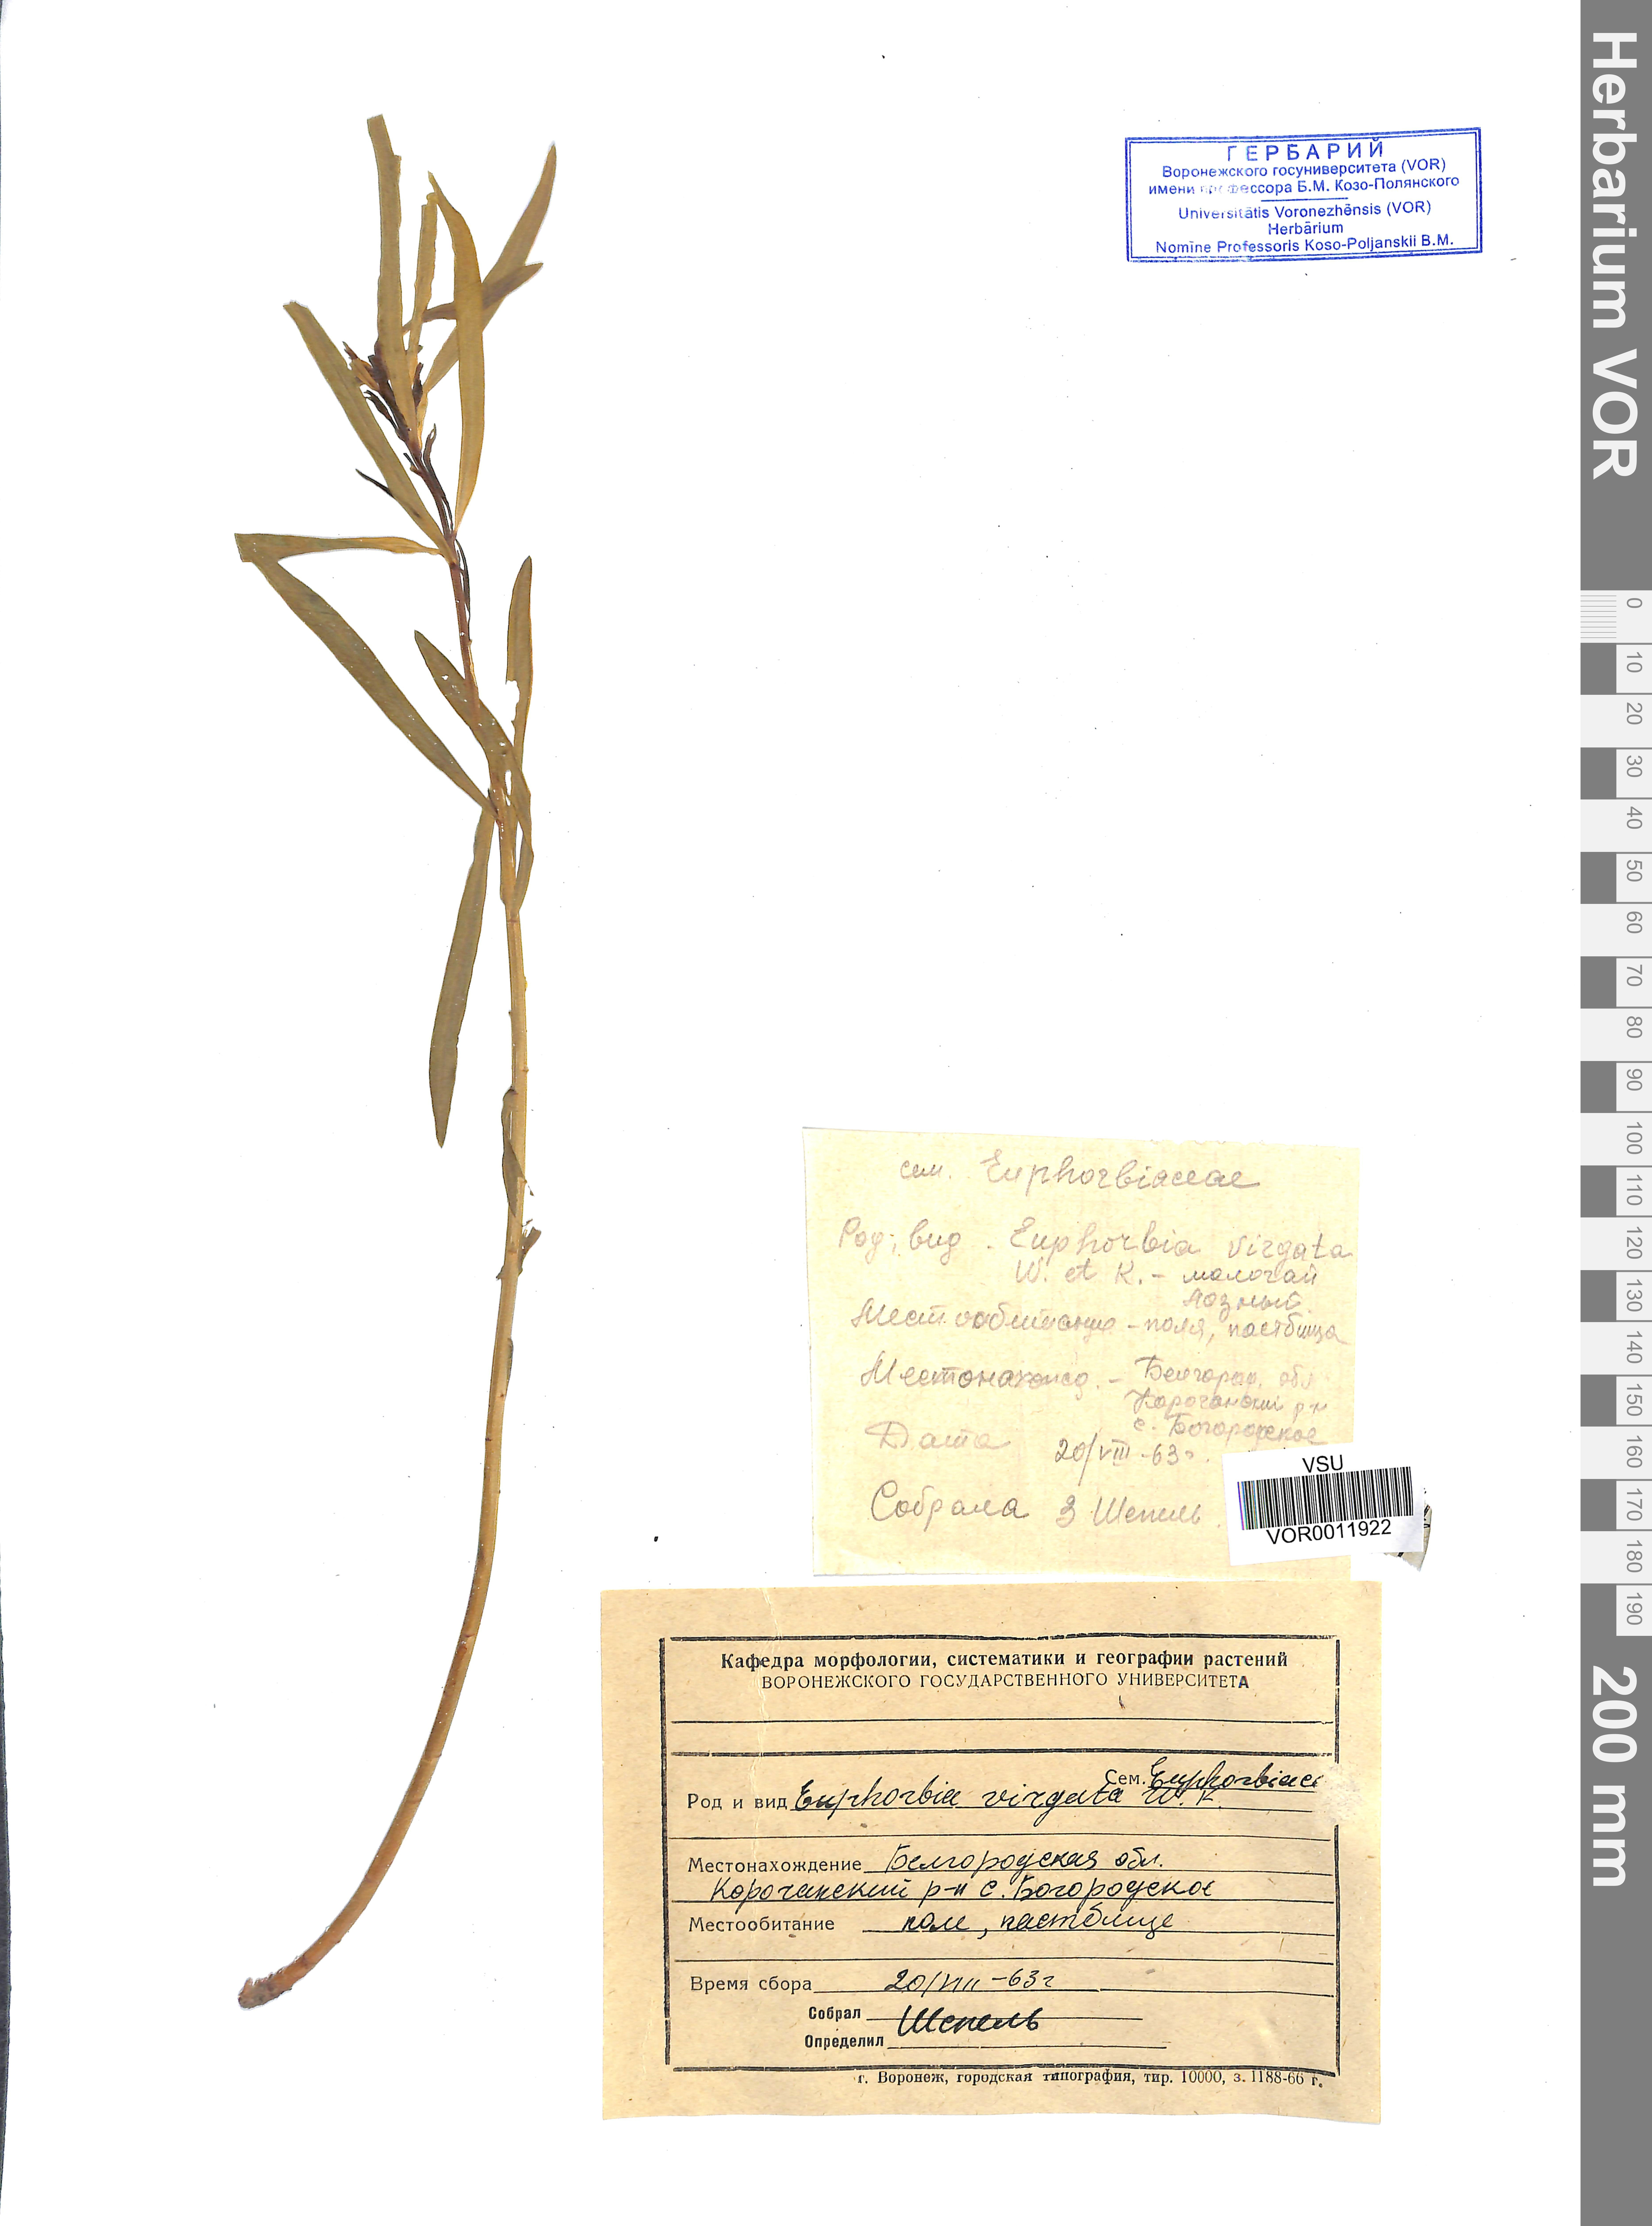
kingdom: Plantae
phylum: Tracheophyta
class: Magnoliopsida
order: Malpighiales
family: Euphorbiaceae
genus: Euphorbia
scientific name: Euphorbia virgata
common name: Leafy spurge
